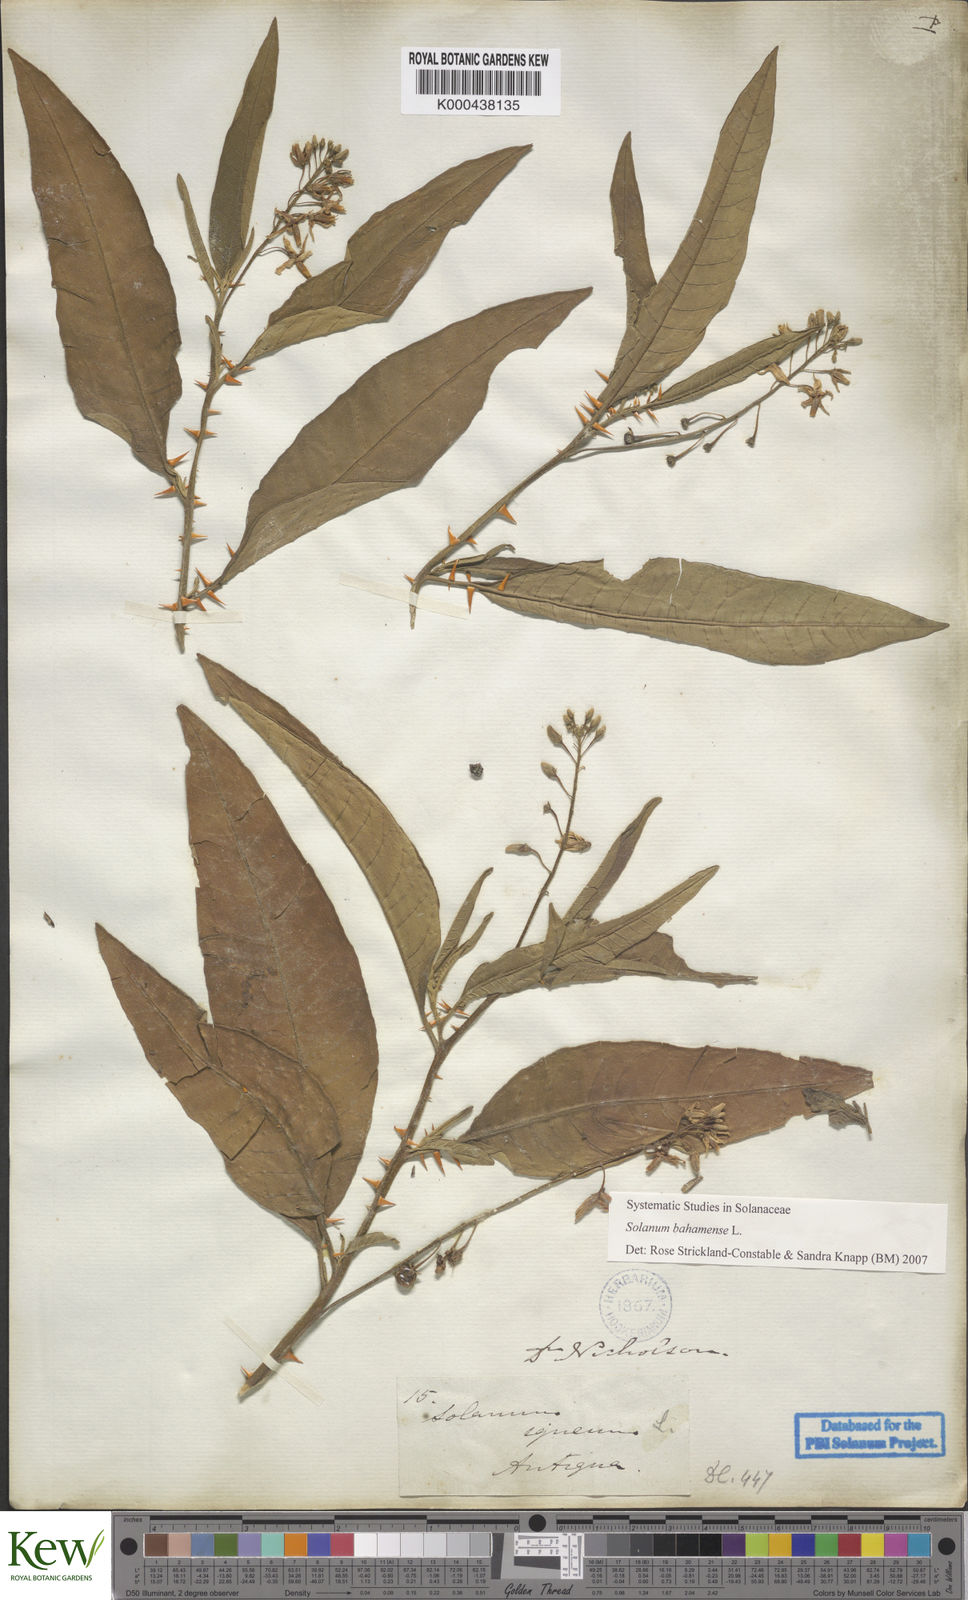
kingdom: Plantae
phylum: Tracheophyta
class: Magnoliopsida
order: Solanales
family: Solanaceae
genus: Solanum
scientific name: Solanum bahamense
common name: Canker-berry
